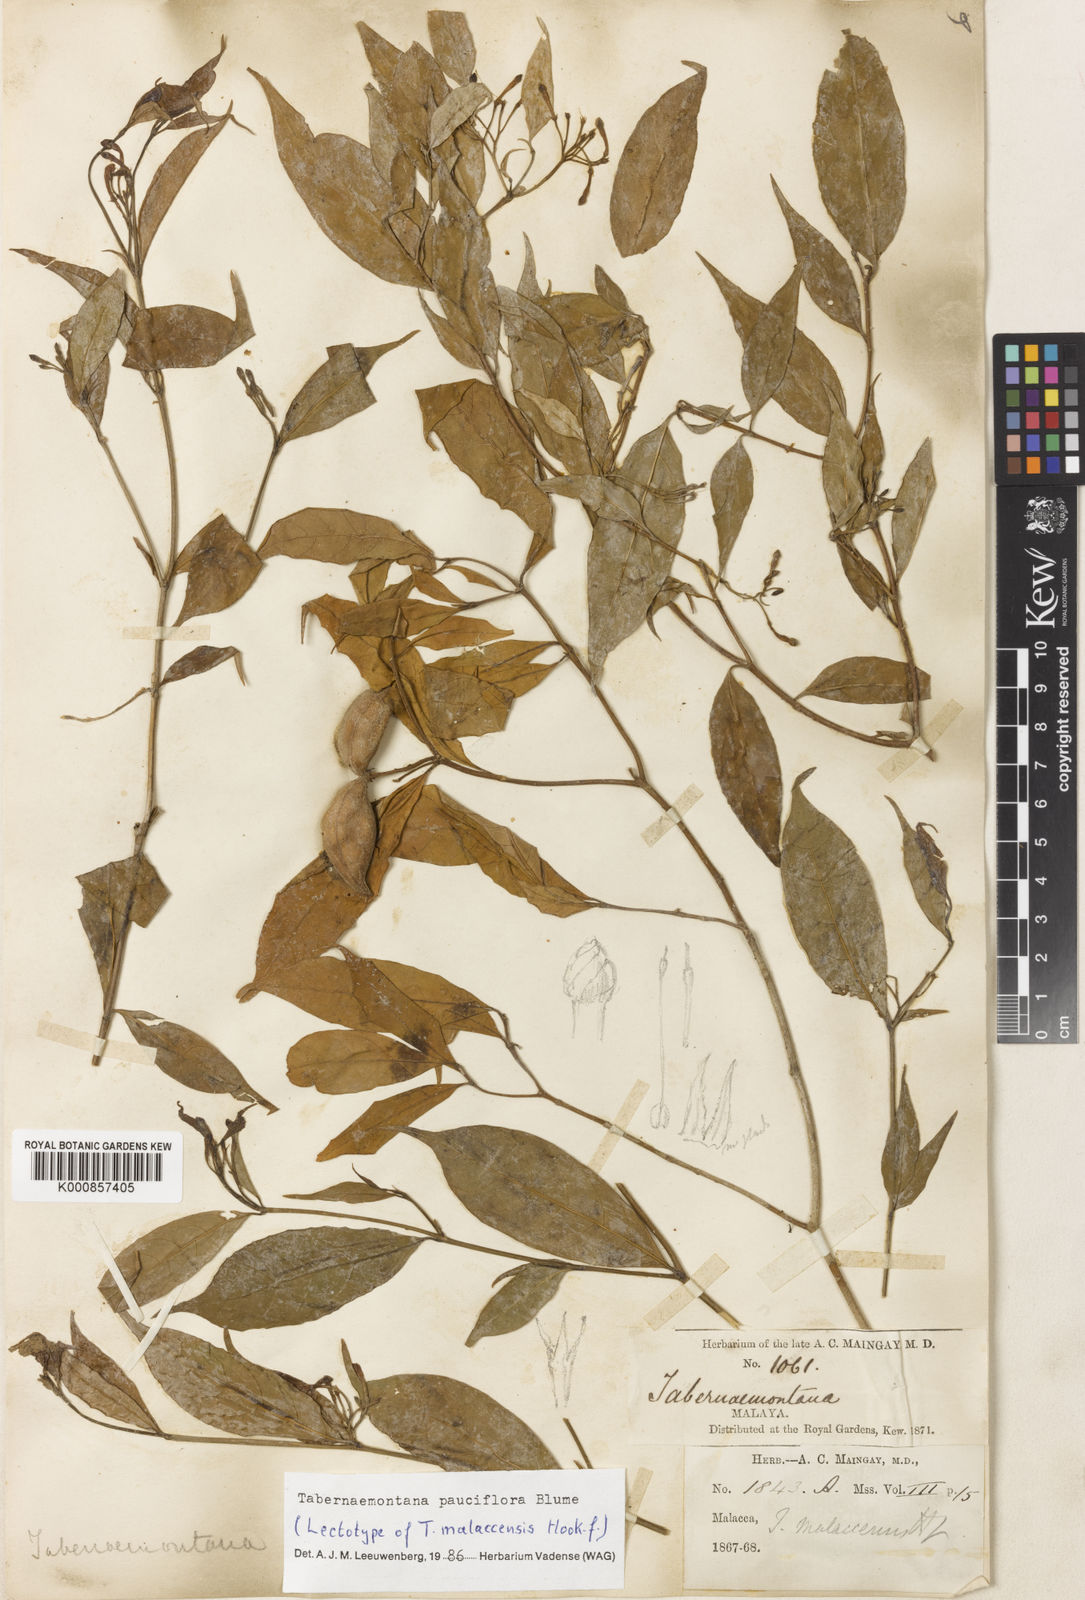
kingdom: Plantae
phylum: Tracheophyta
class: Magnoliopsida
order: Gentianales
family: Apocynaceae
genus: Tabernaemontana
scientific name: Tabernaemontana pauciflora
